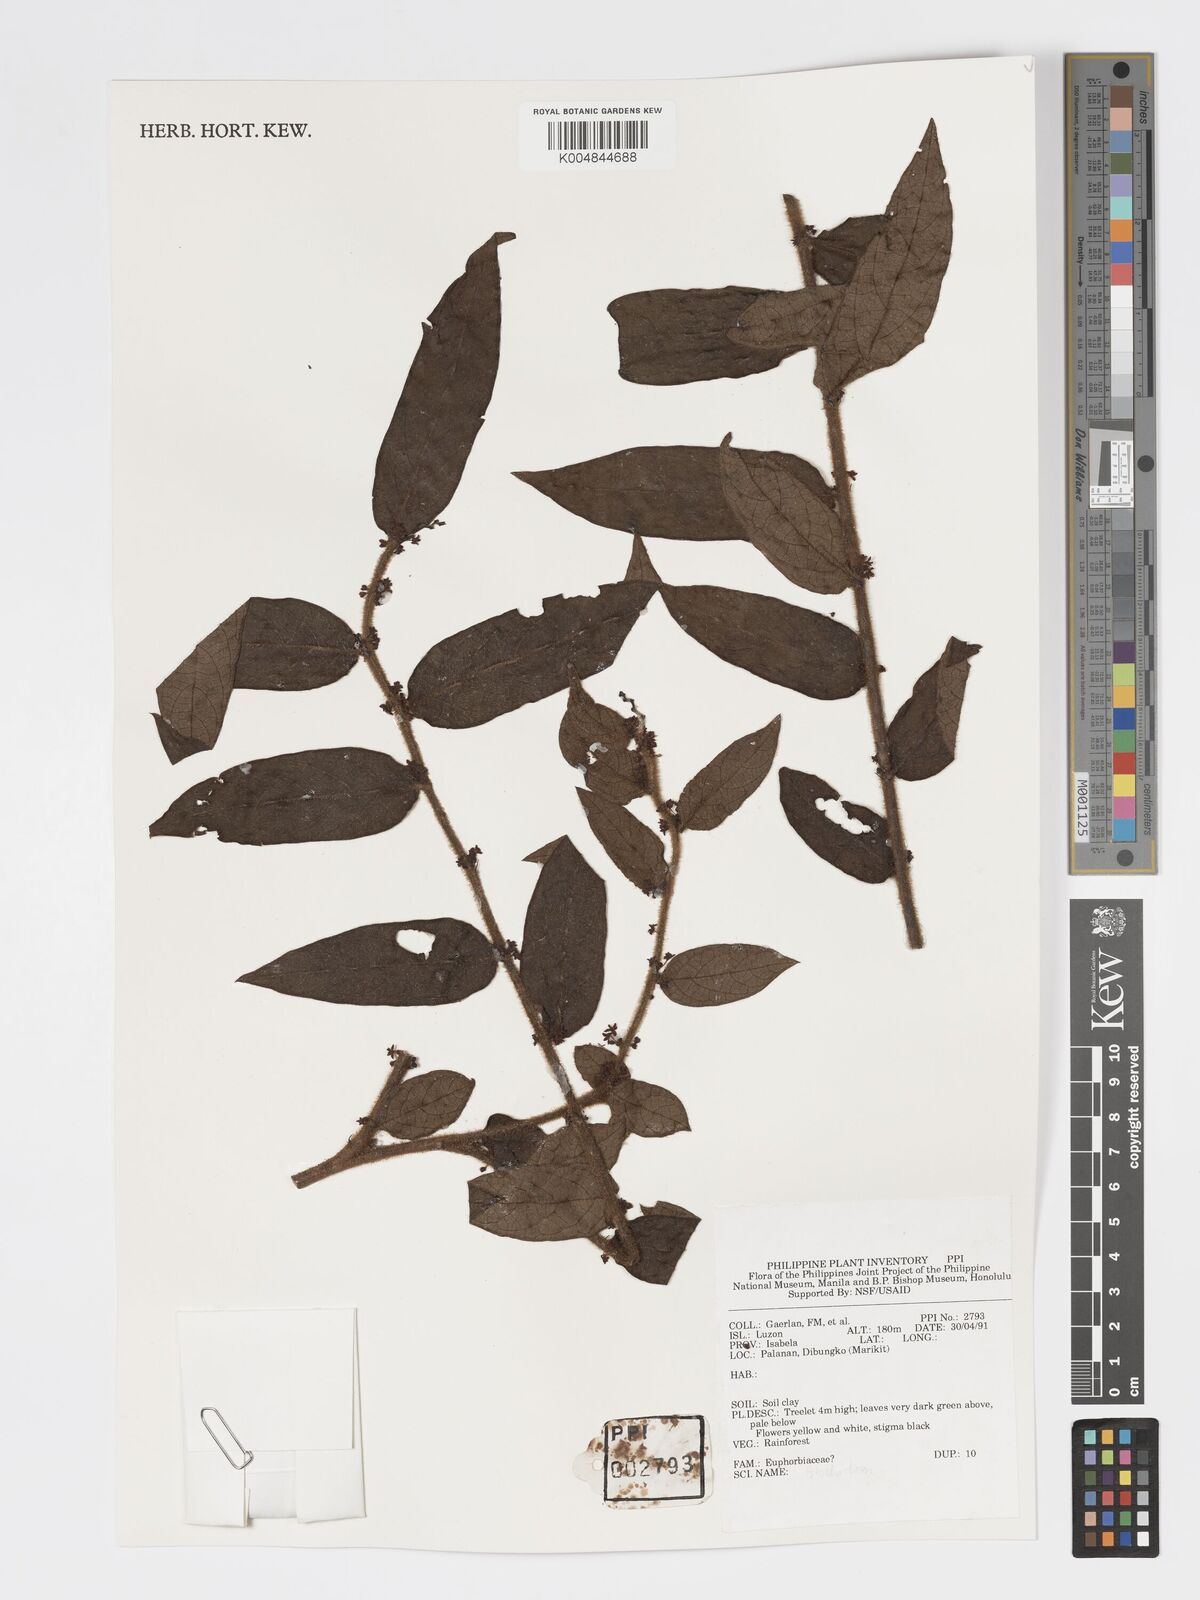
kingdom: Plantae
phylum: Tracheophyta
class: Magnoliopsida
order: Malpighiales
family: Phyllanthaceae
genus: Glochidion
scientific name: Glochidion
